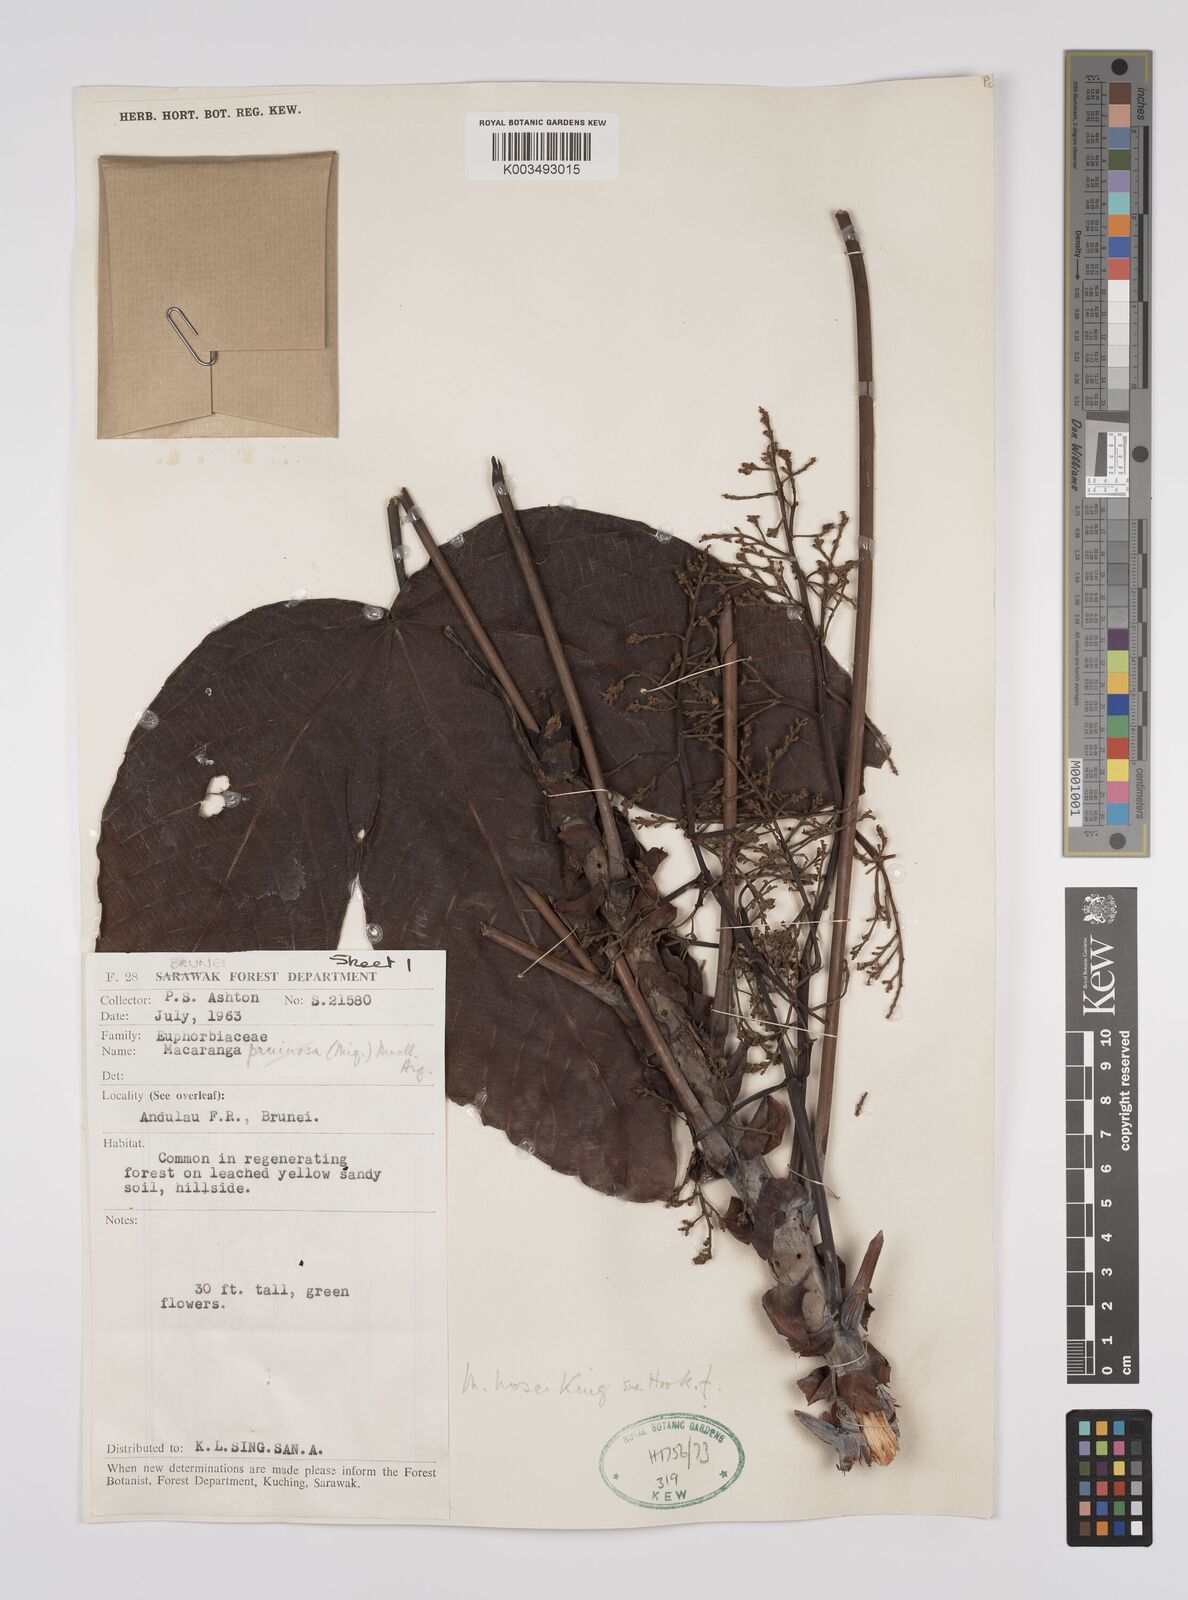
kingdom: Plantae
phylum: Tracheophyta
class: Magnoliopsida
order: Malpighiales
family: Euphorbiaceae
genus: Macaranga
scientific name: Macaranga hosei
